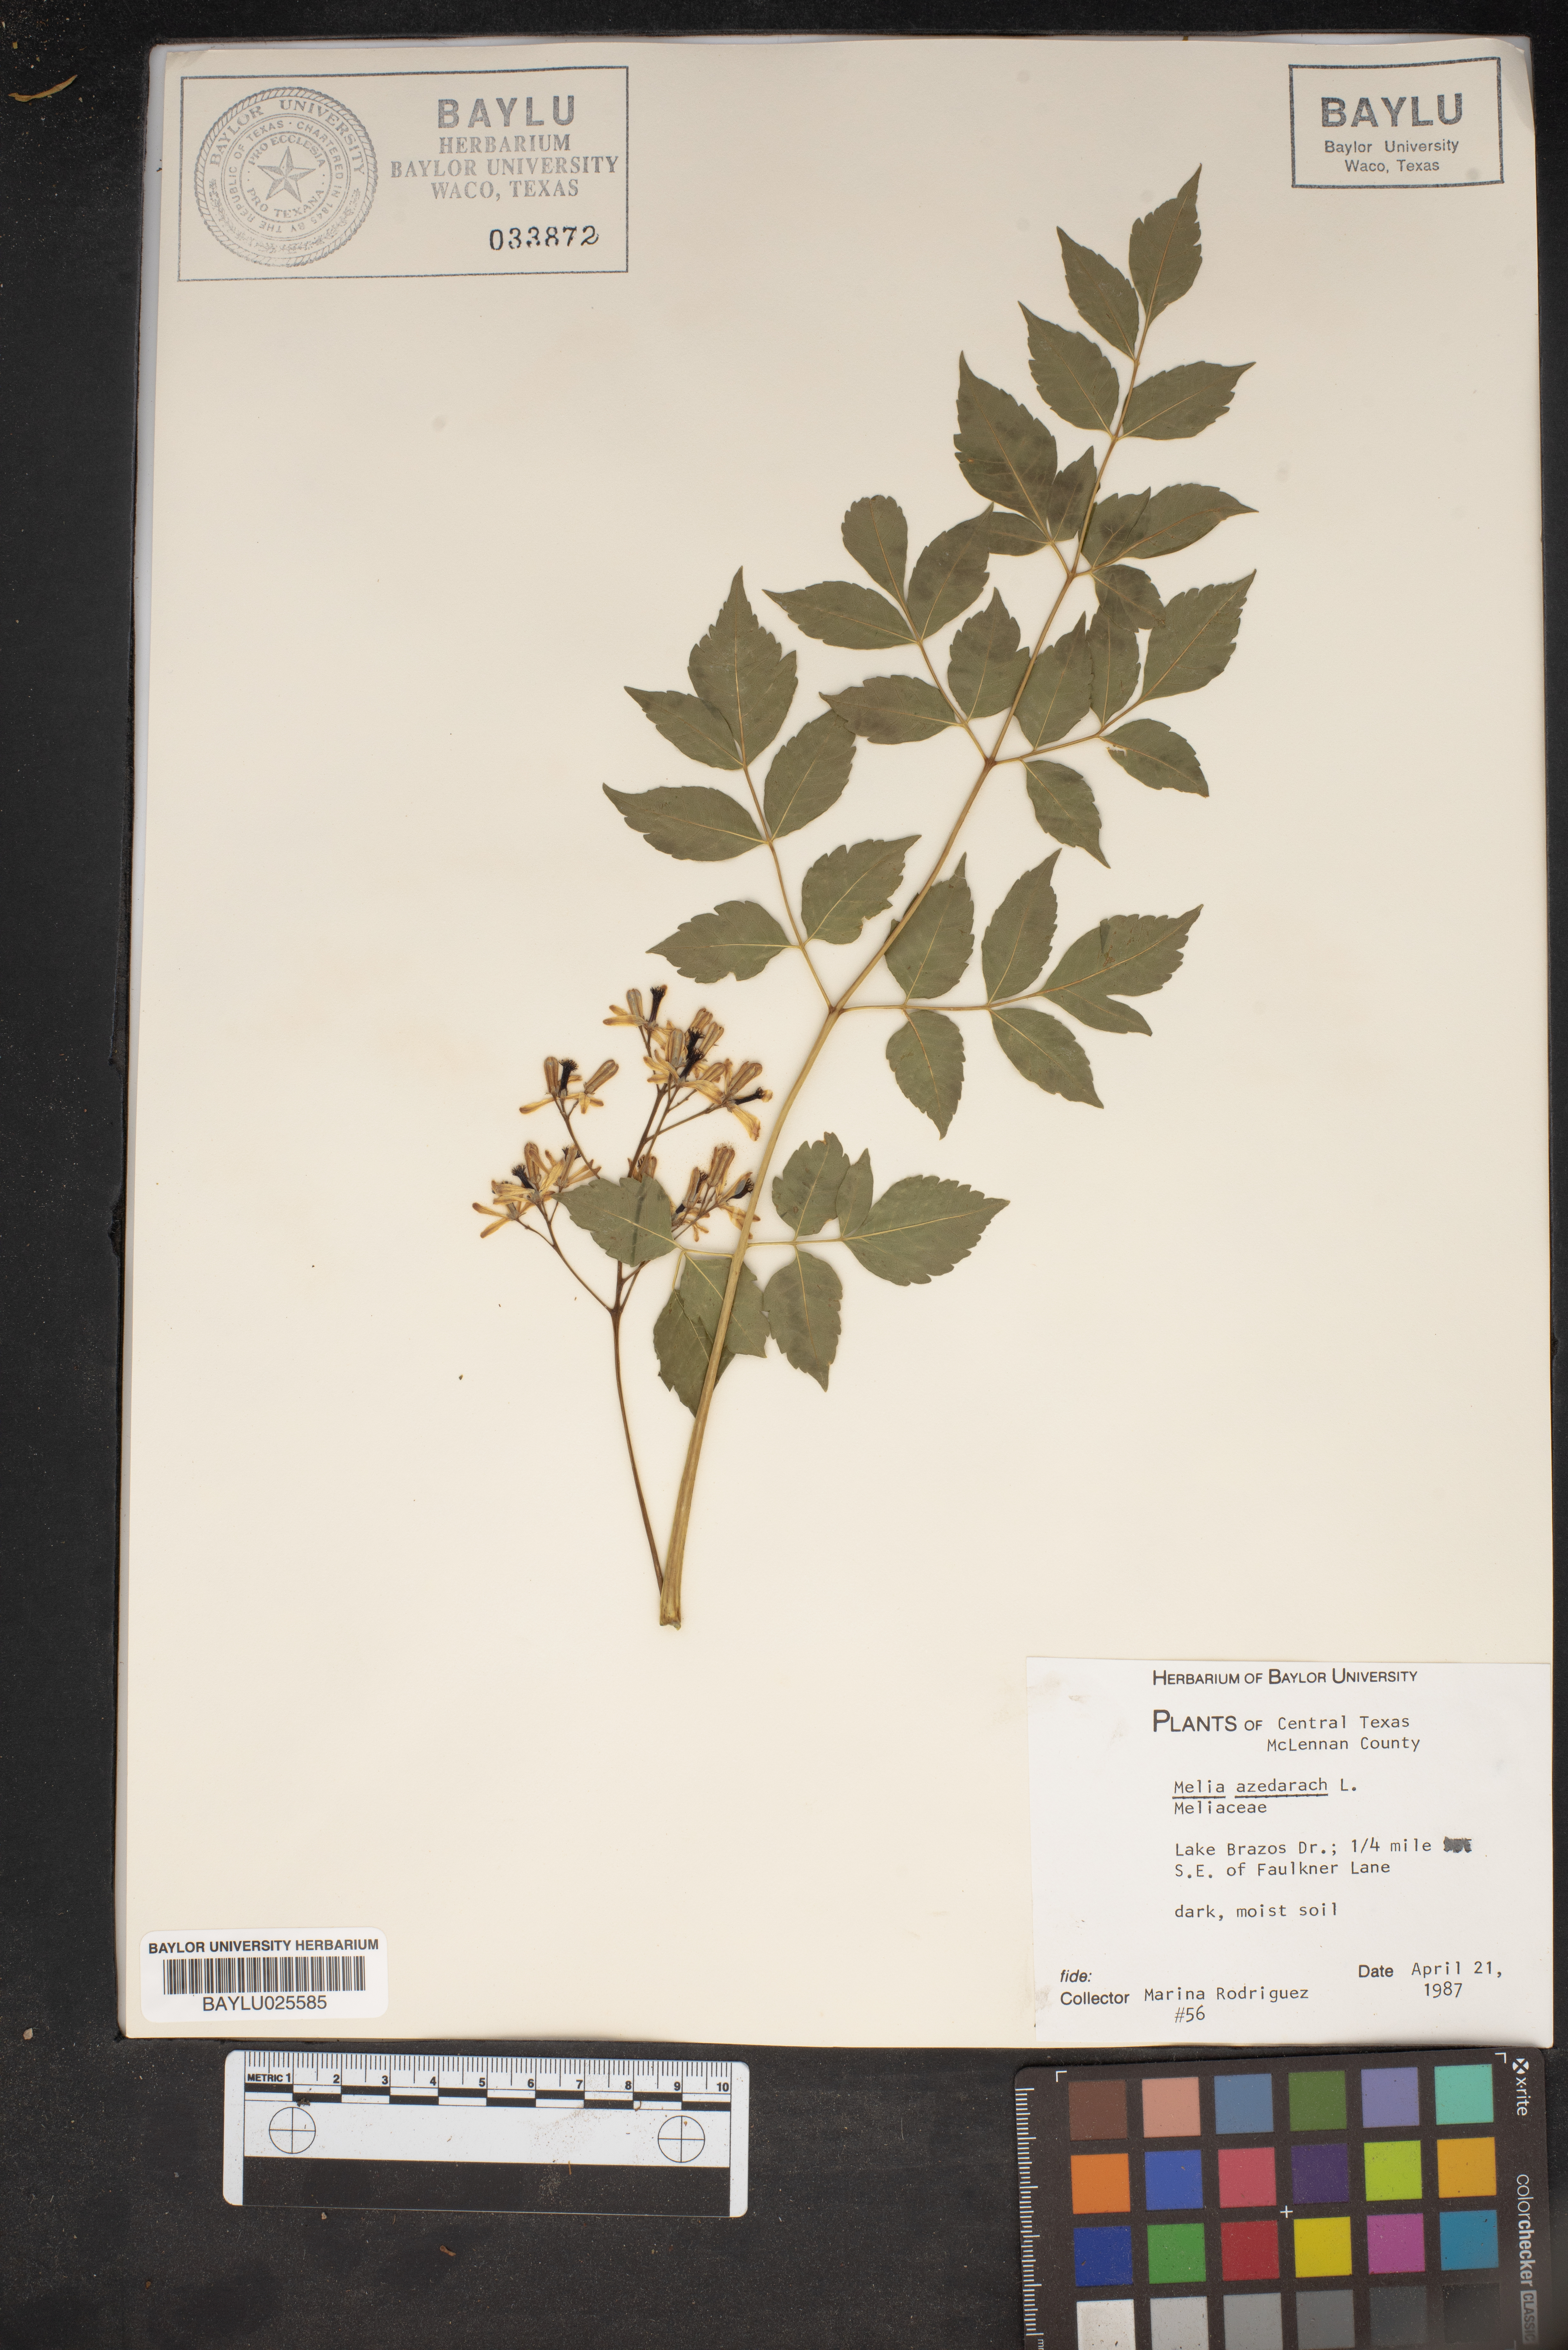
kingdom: Plantae
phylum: Tracheophyta
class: Magnoliopsida
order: Sapindales
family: Meliaceae
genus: Melia
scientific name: Melia azedarach
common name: Chinaberrytree
